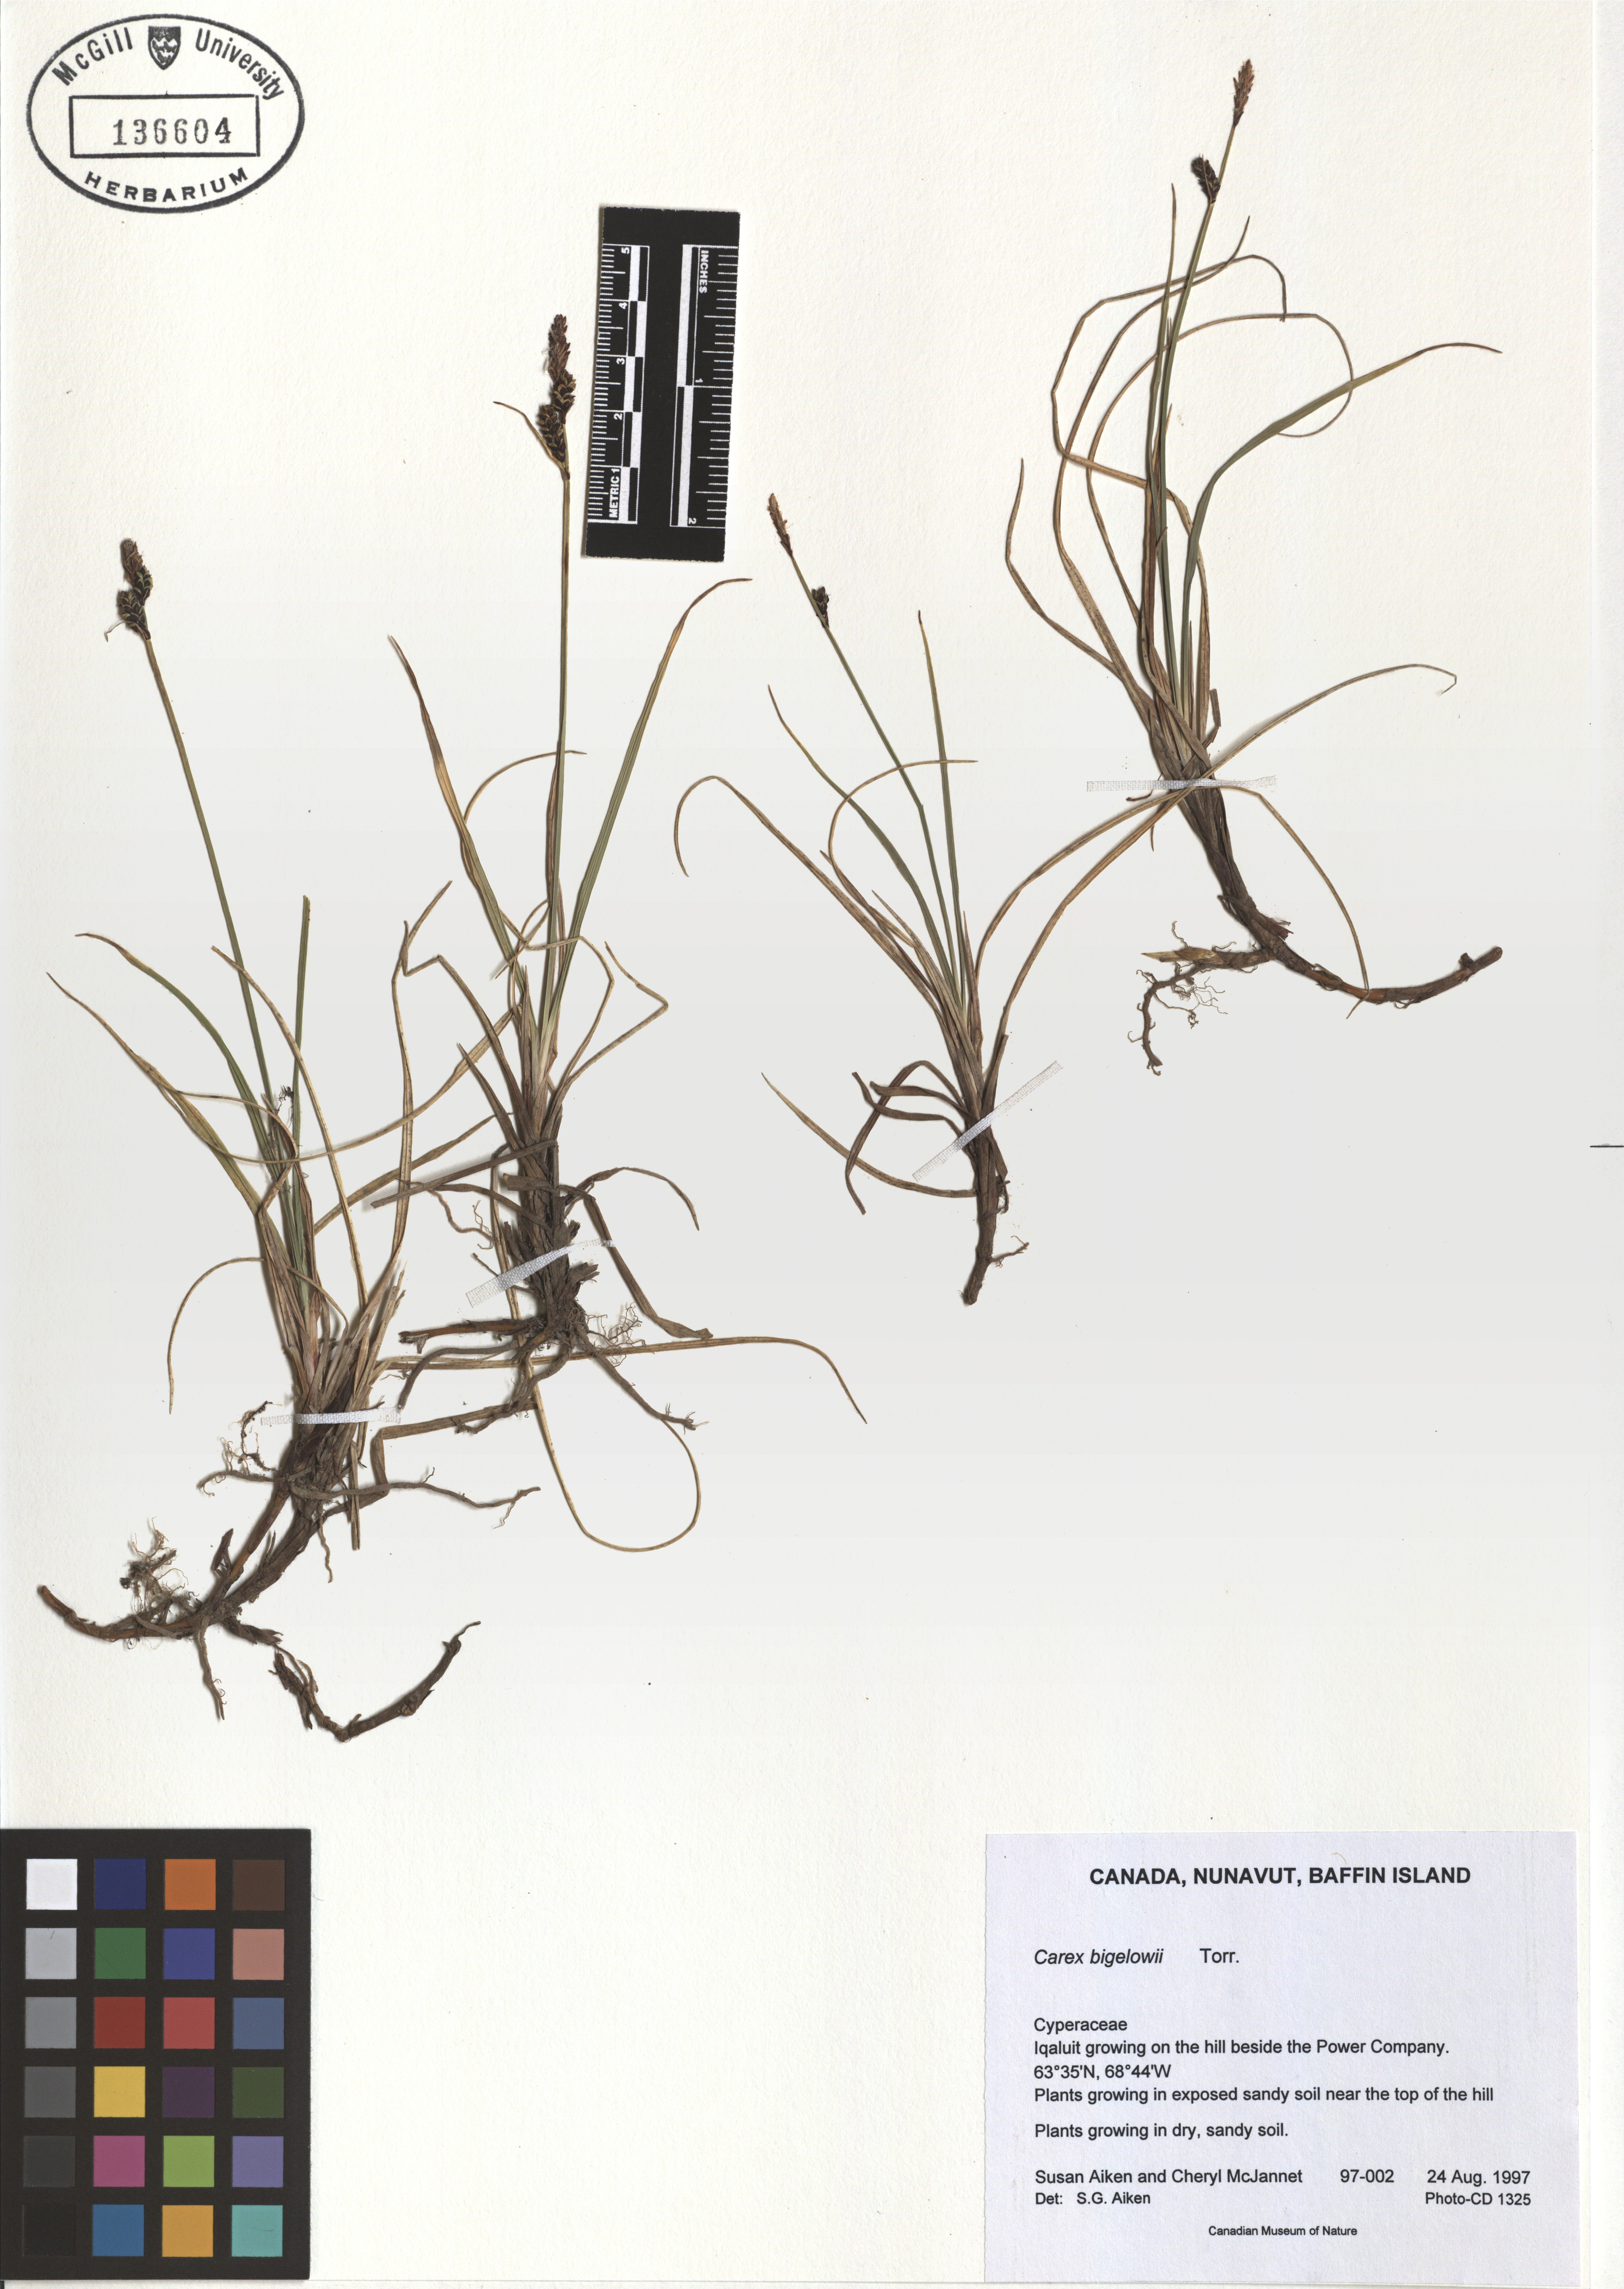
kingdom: Plantae
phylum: Tracheophyta
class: Liliopsida
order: Poales
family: Cyperaceae
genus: Carex
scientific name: Carex bigelowii
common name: Stiff sedge
